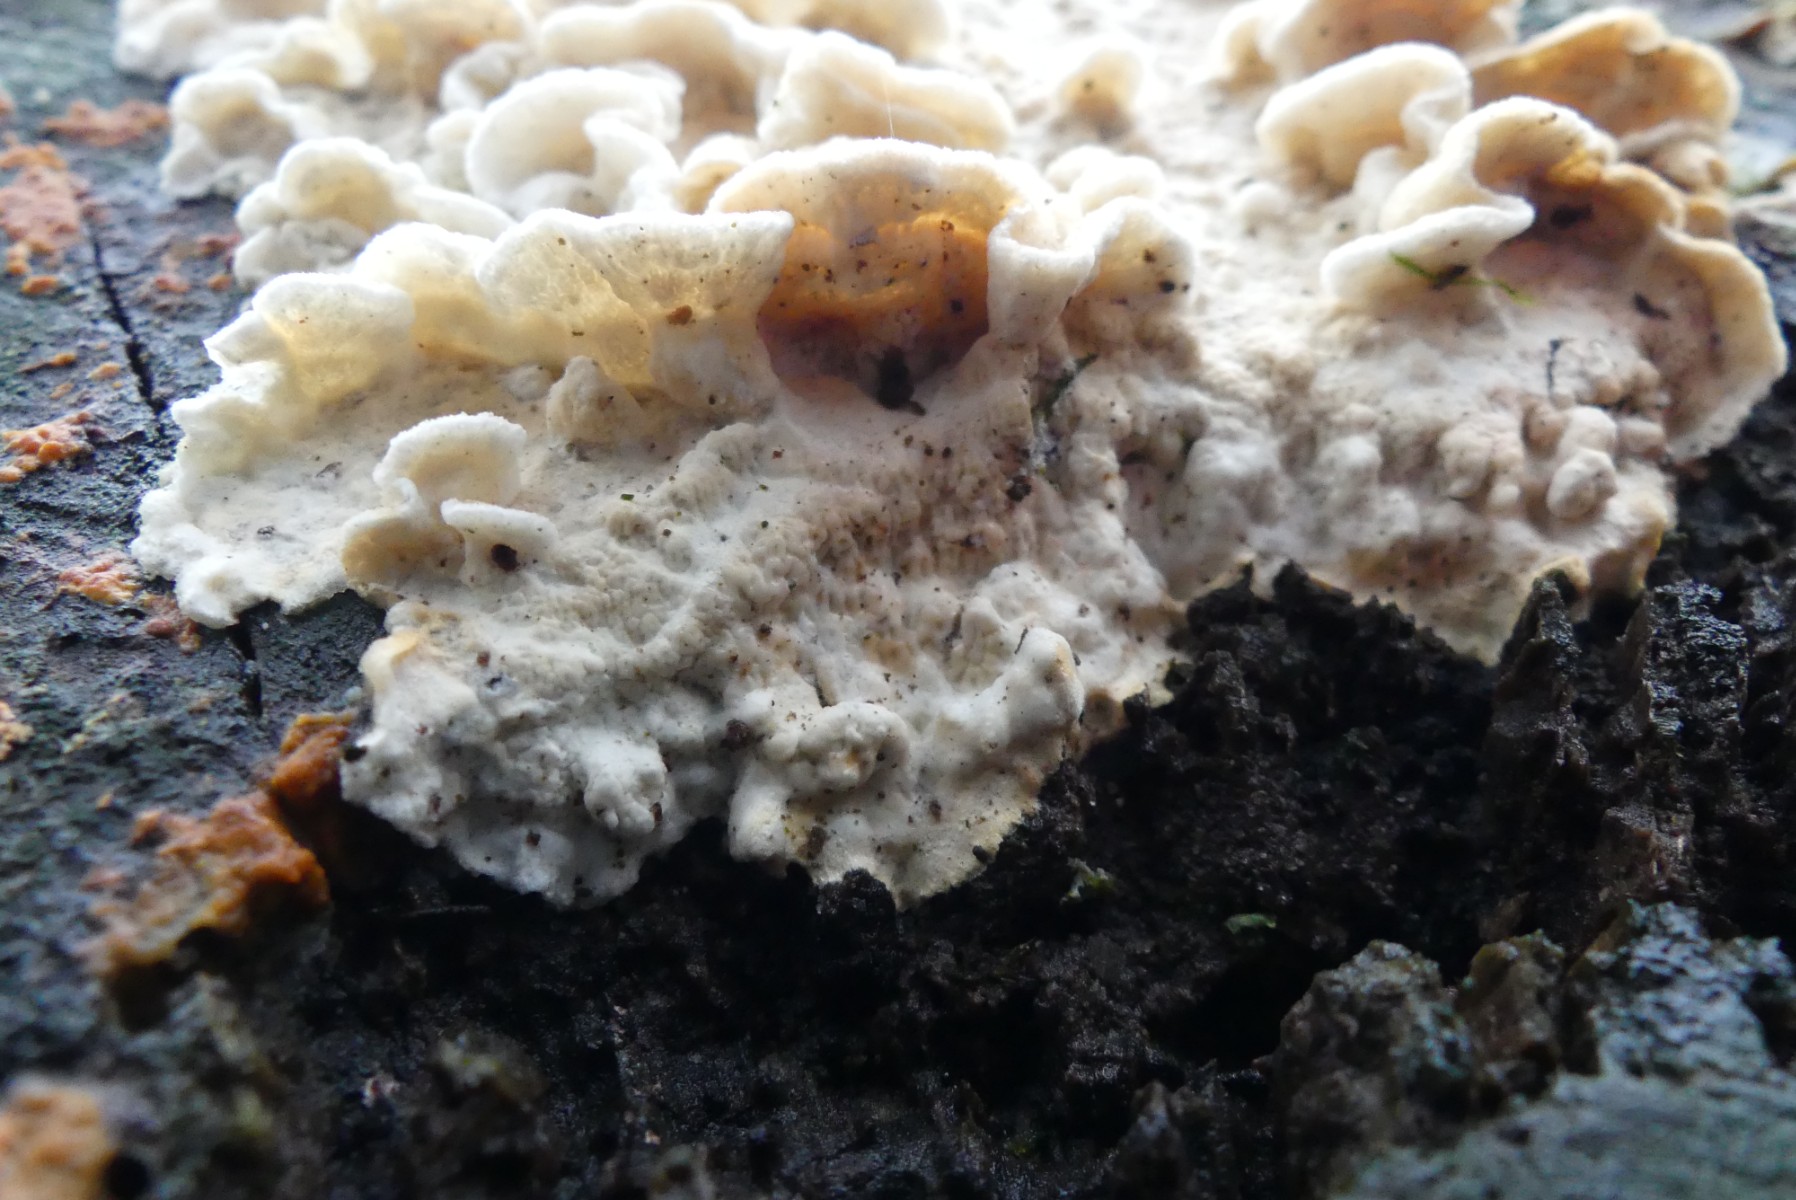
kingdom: Fungi
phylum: Basidiomycota
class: Agaricomycetes
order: Polyporales
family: Incrustoporiaceae
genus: Skeletocutis
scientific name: Skeletocutis
